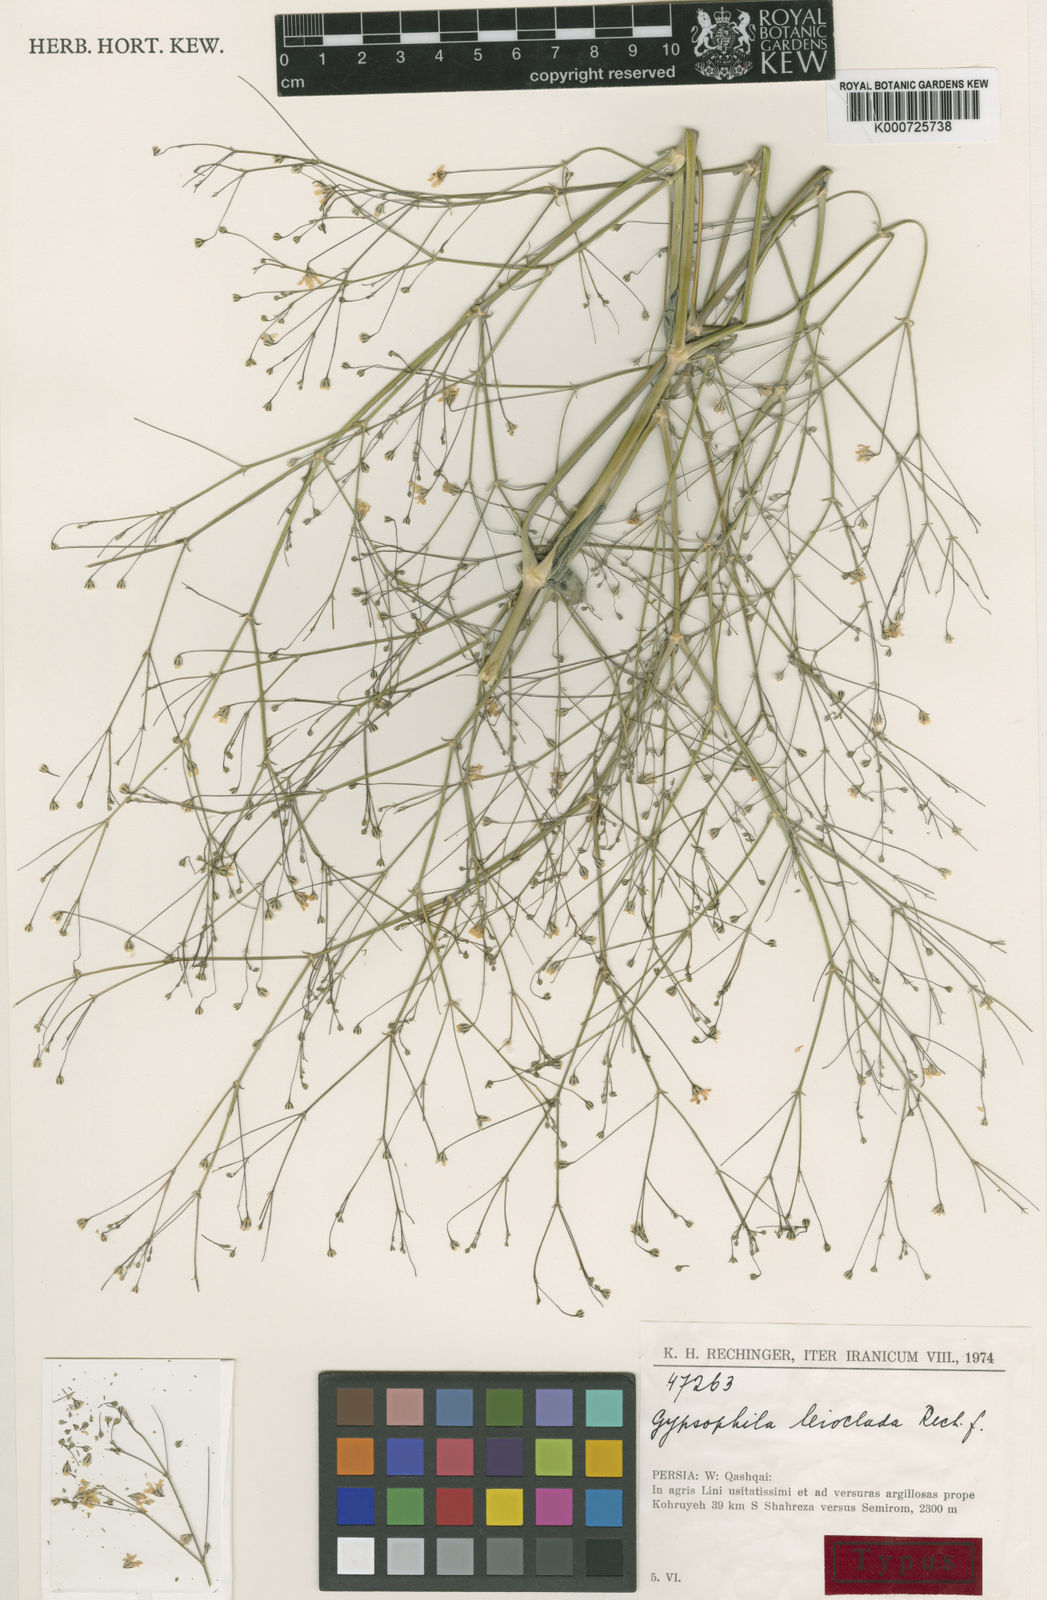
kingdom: Plantae
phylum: Tracheophyta
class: Magnoliopsida
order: Caryophyllales
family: Caryophyllaceae
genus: Gypsophila
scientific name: Gypsophila polyclada
